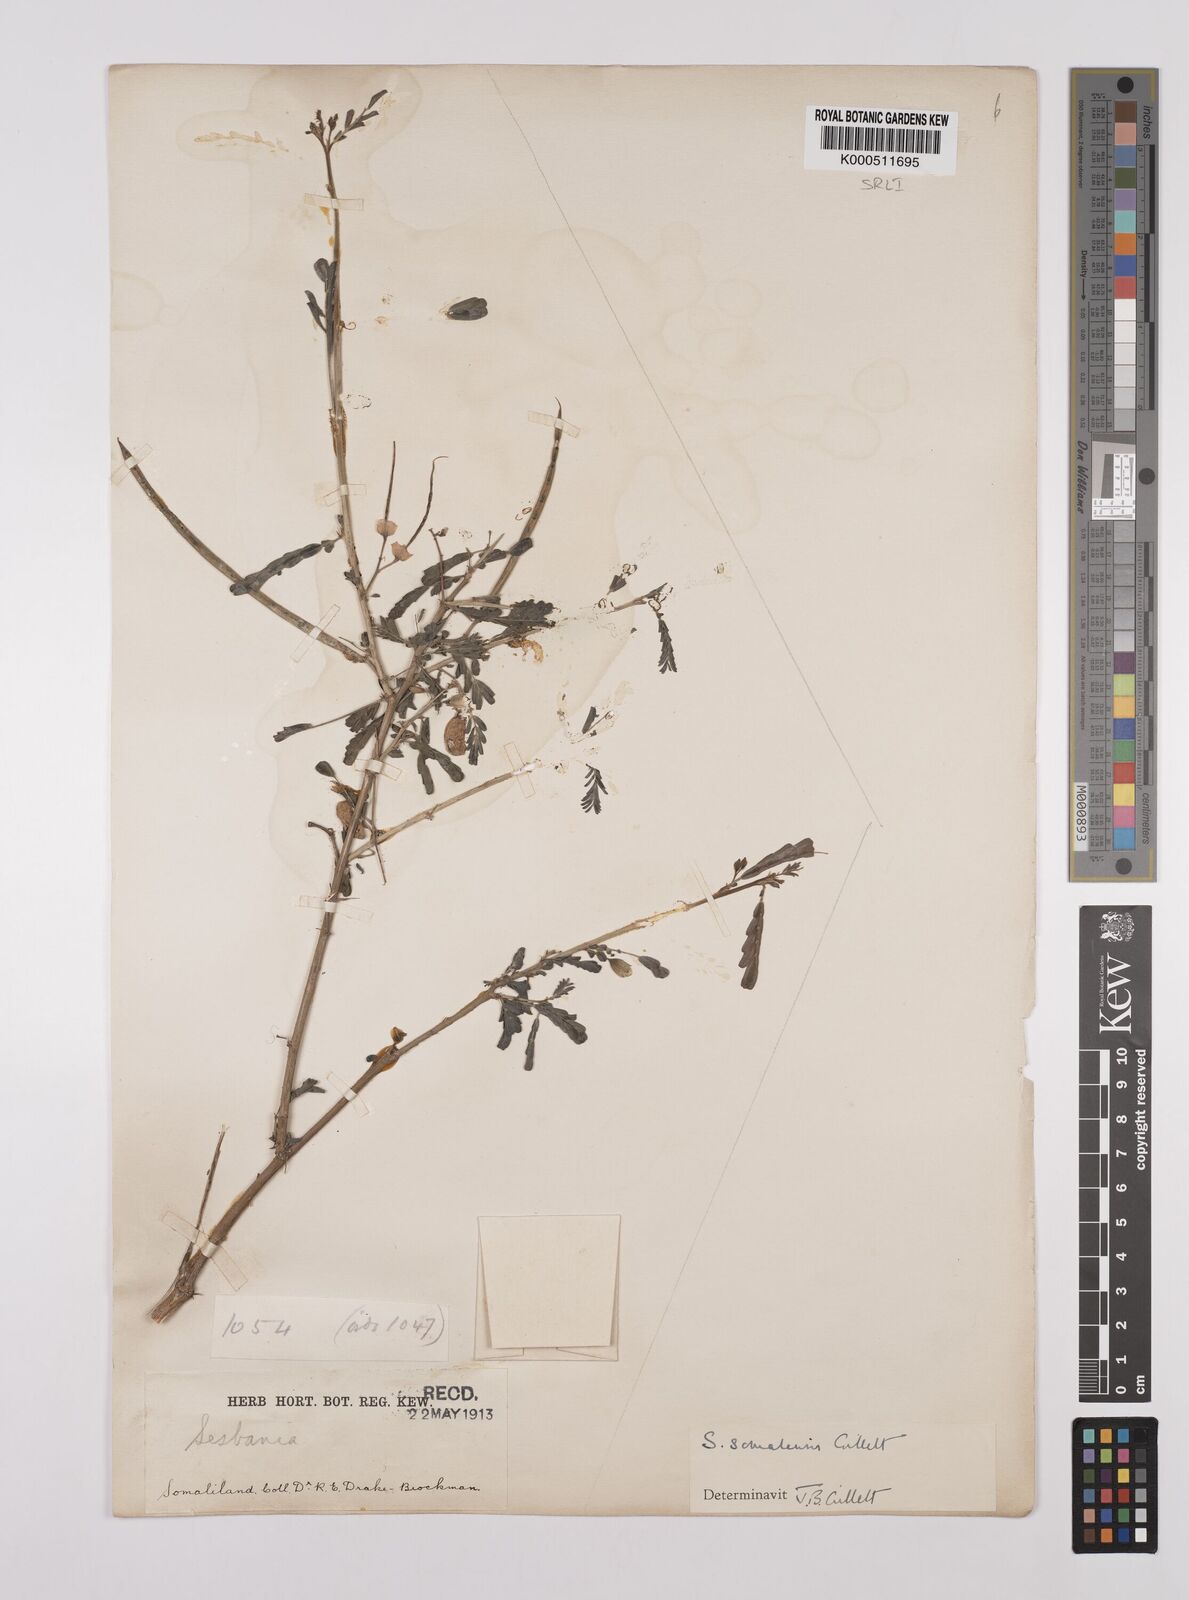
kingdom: Plantae
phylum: Tracheophyta
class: Magnoliopsida
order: Fabales
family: Fabaceae
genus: Sesbania
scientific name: Sesbania somalensis
